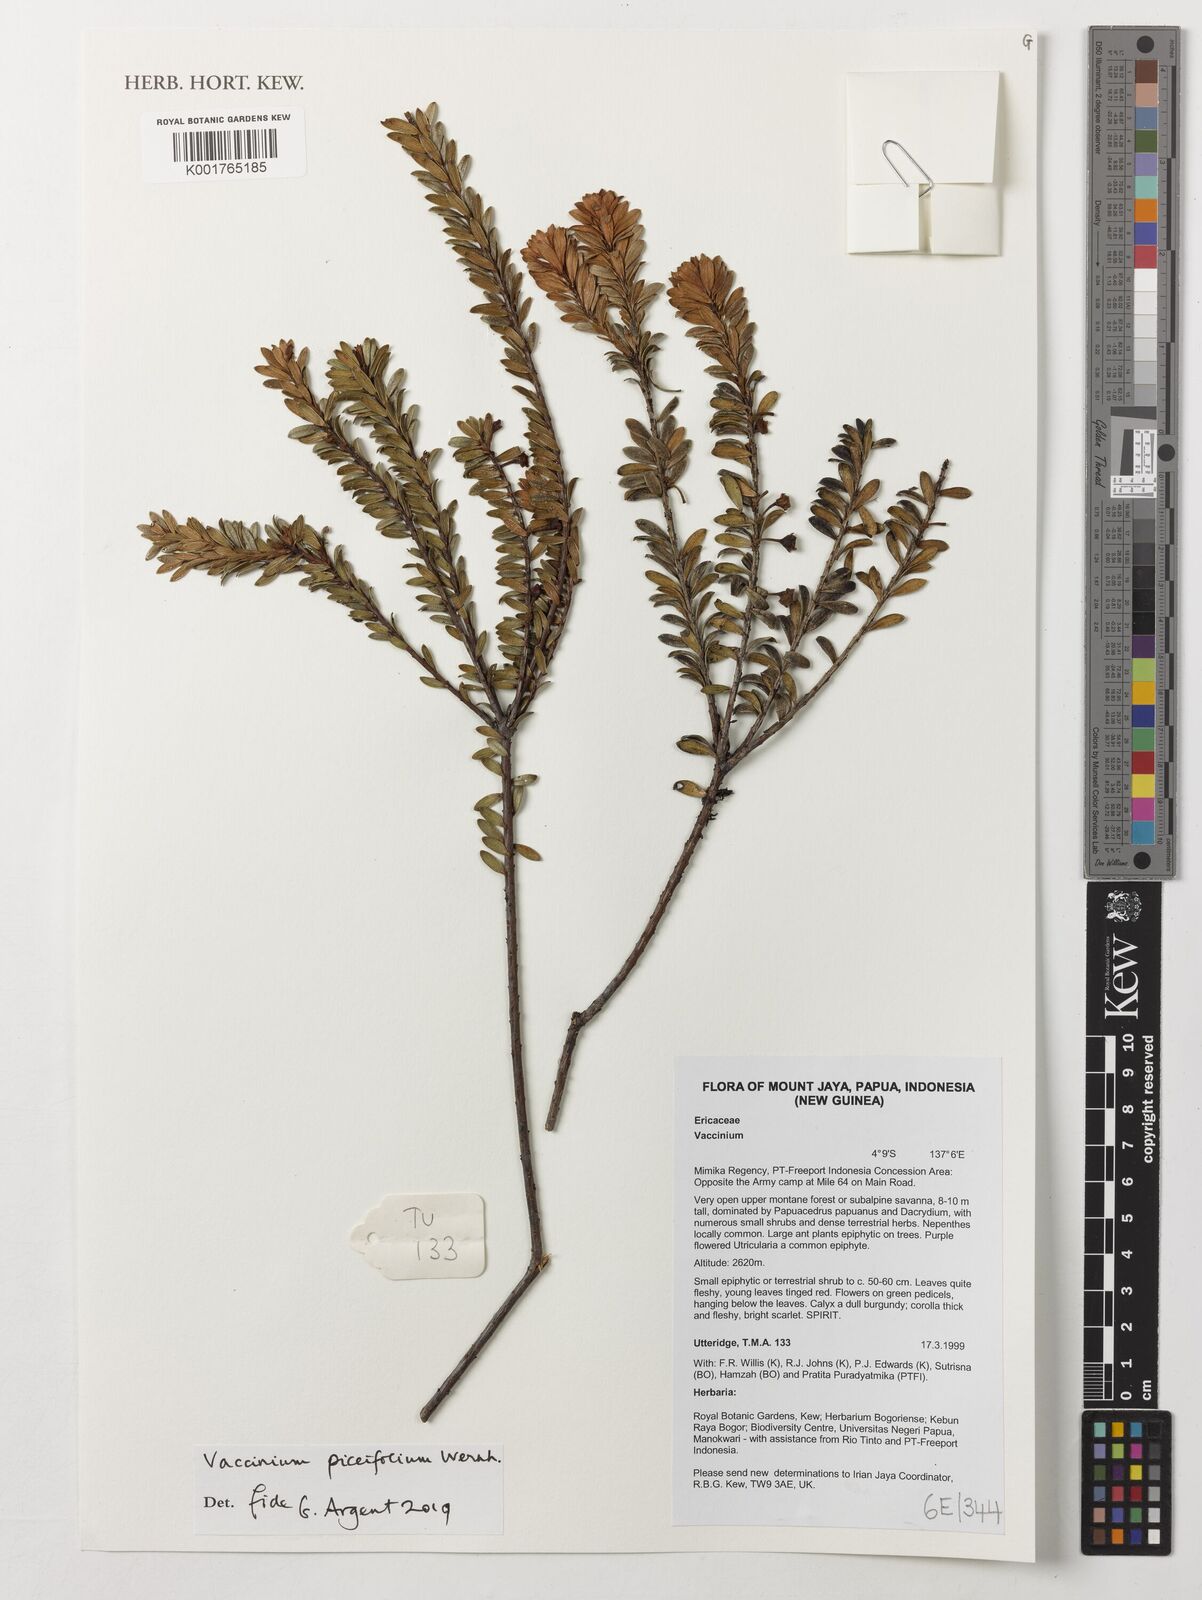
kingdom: Plantae
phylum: Tracheophyta
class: Magnoliopsida
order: Ericales
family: Ericaceae
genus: Vaccinium
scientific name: Vaccinium piceifolium
